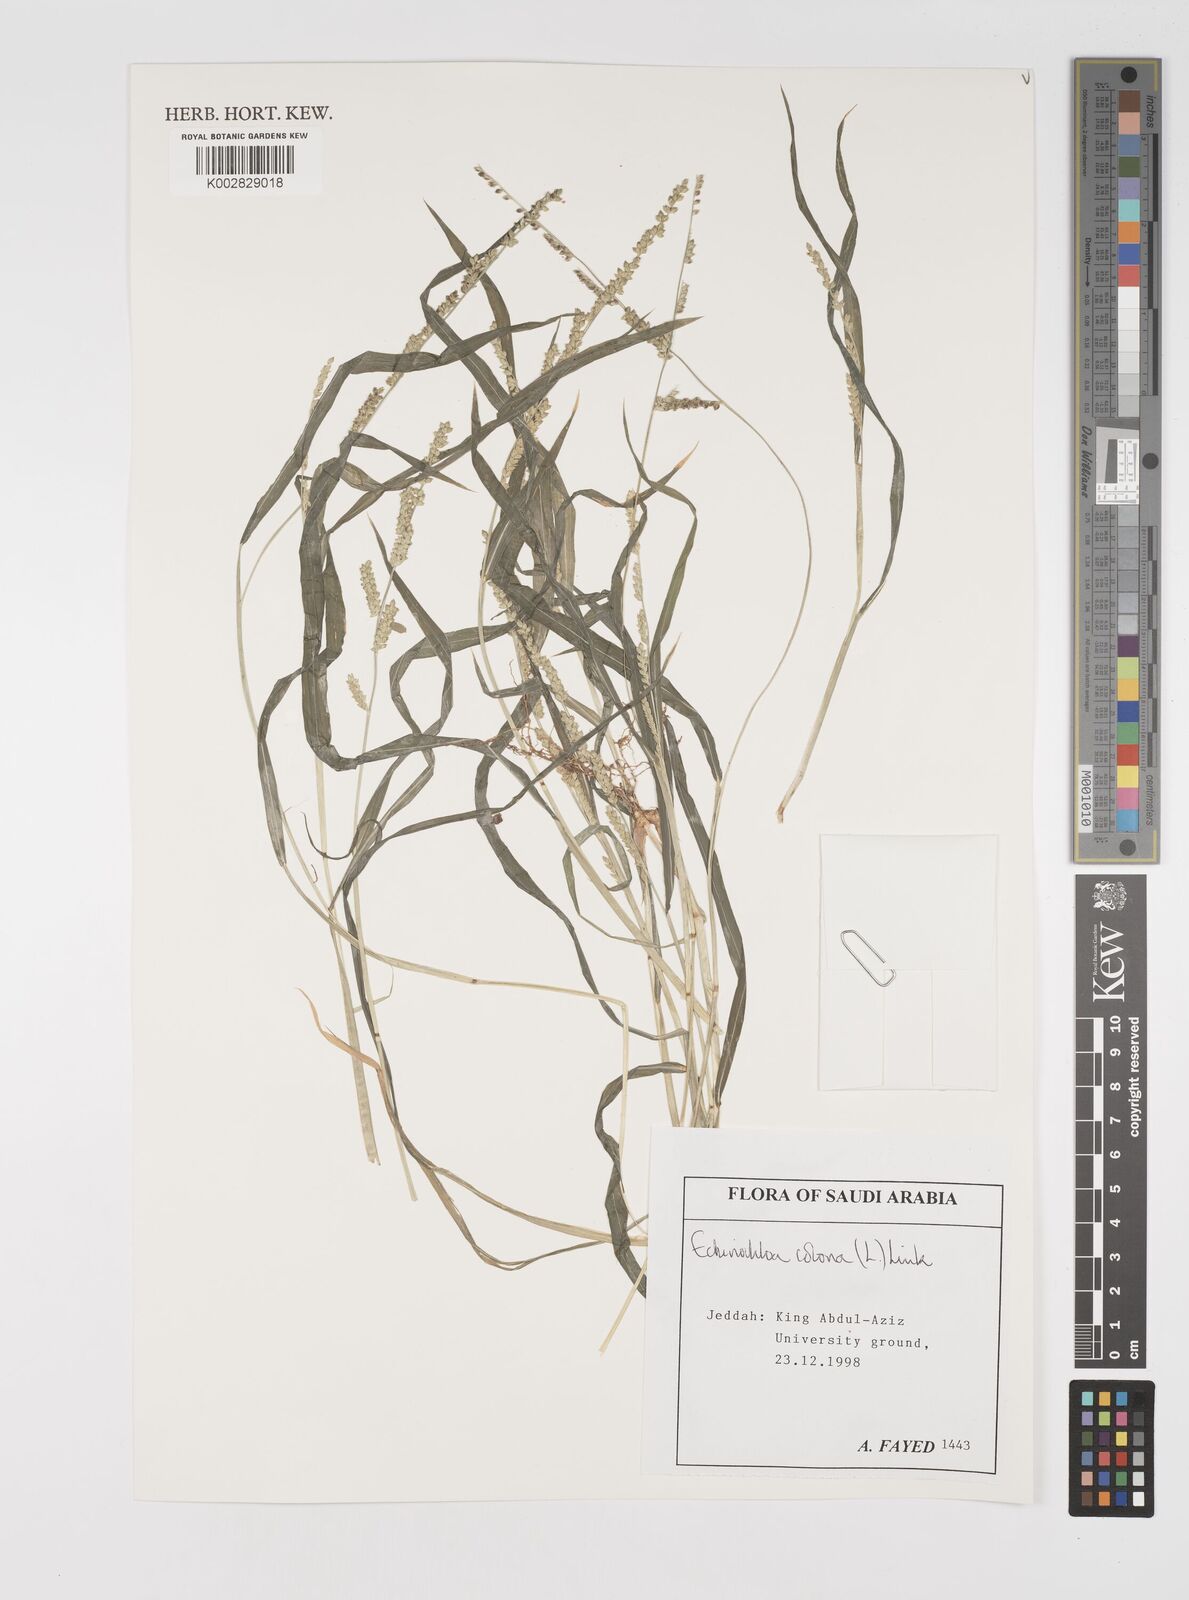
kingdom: Plantae
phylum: Tracheophyta
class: Liliopsida
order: Poales
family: Poaceae
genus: Echinochloa
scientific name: Echinochloa colonum
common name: Jungle rice
